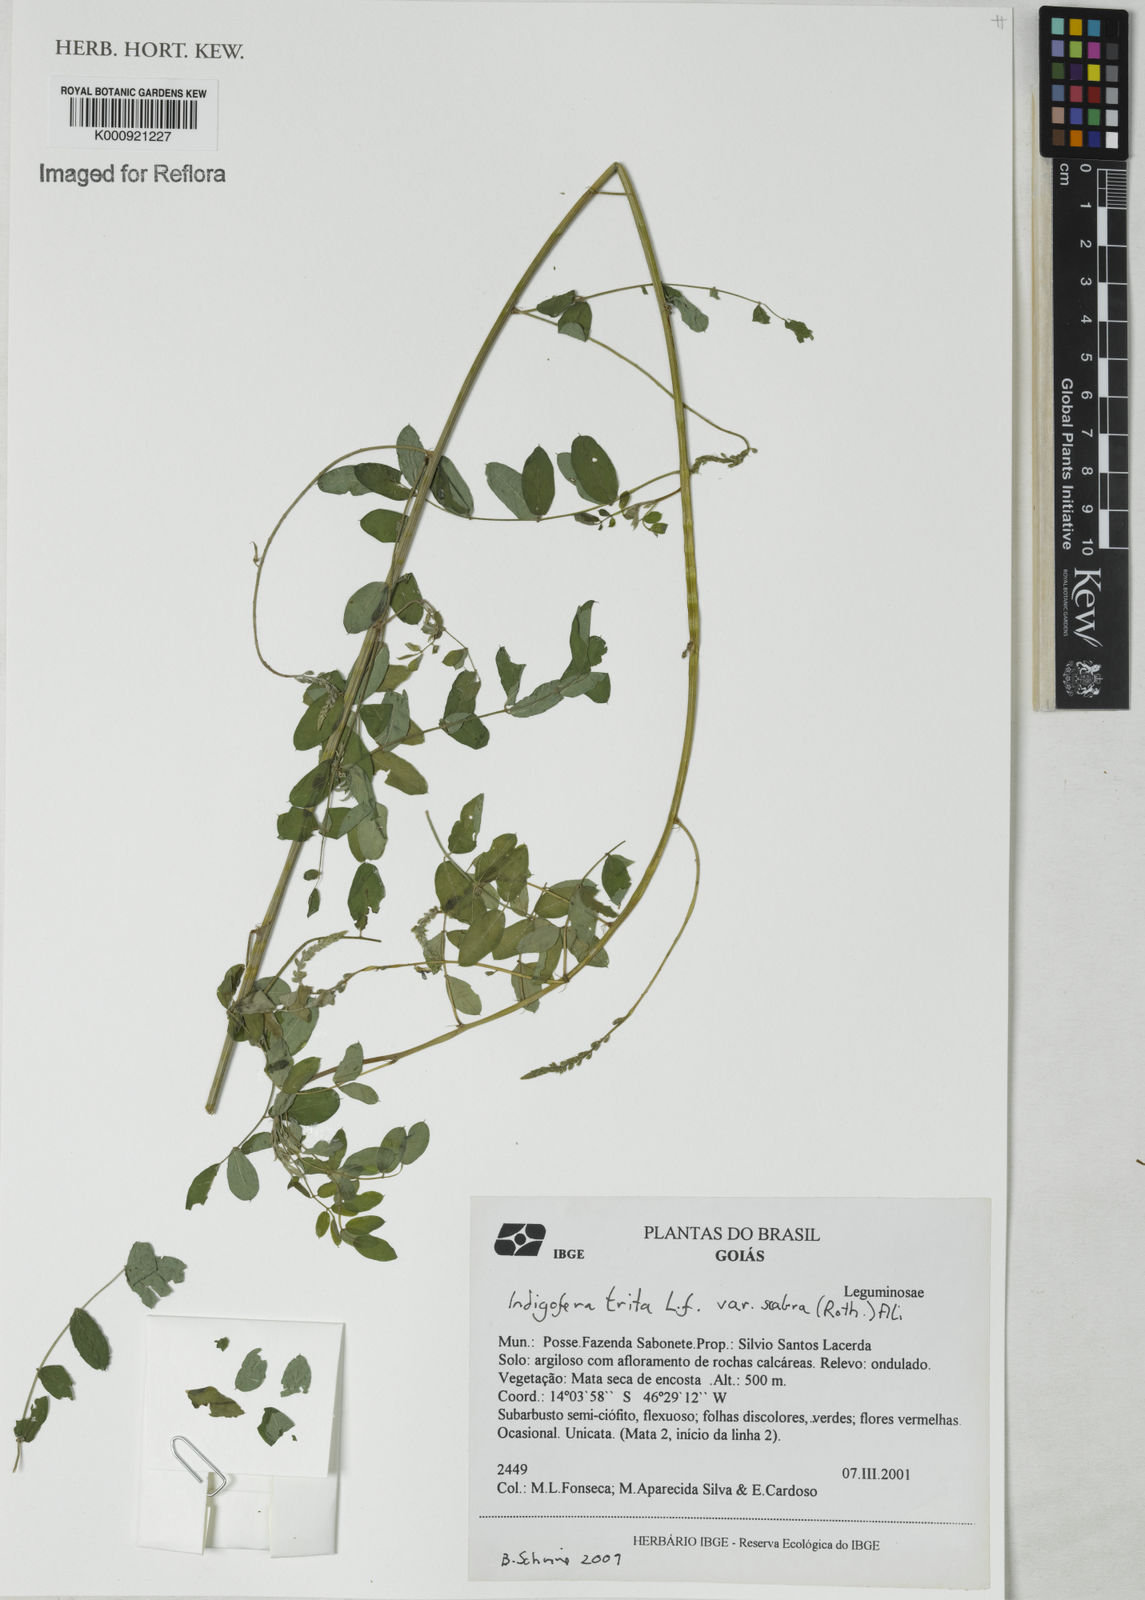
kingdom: Plantae
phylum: Tracheophyta
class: Magnoliopsida
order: Fabales
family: Fabaceae
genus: Indigofera
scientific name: Indigofera
